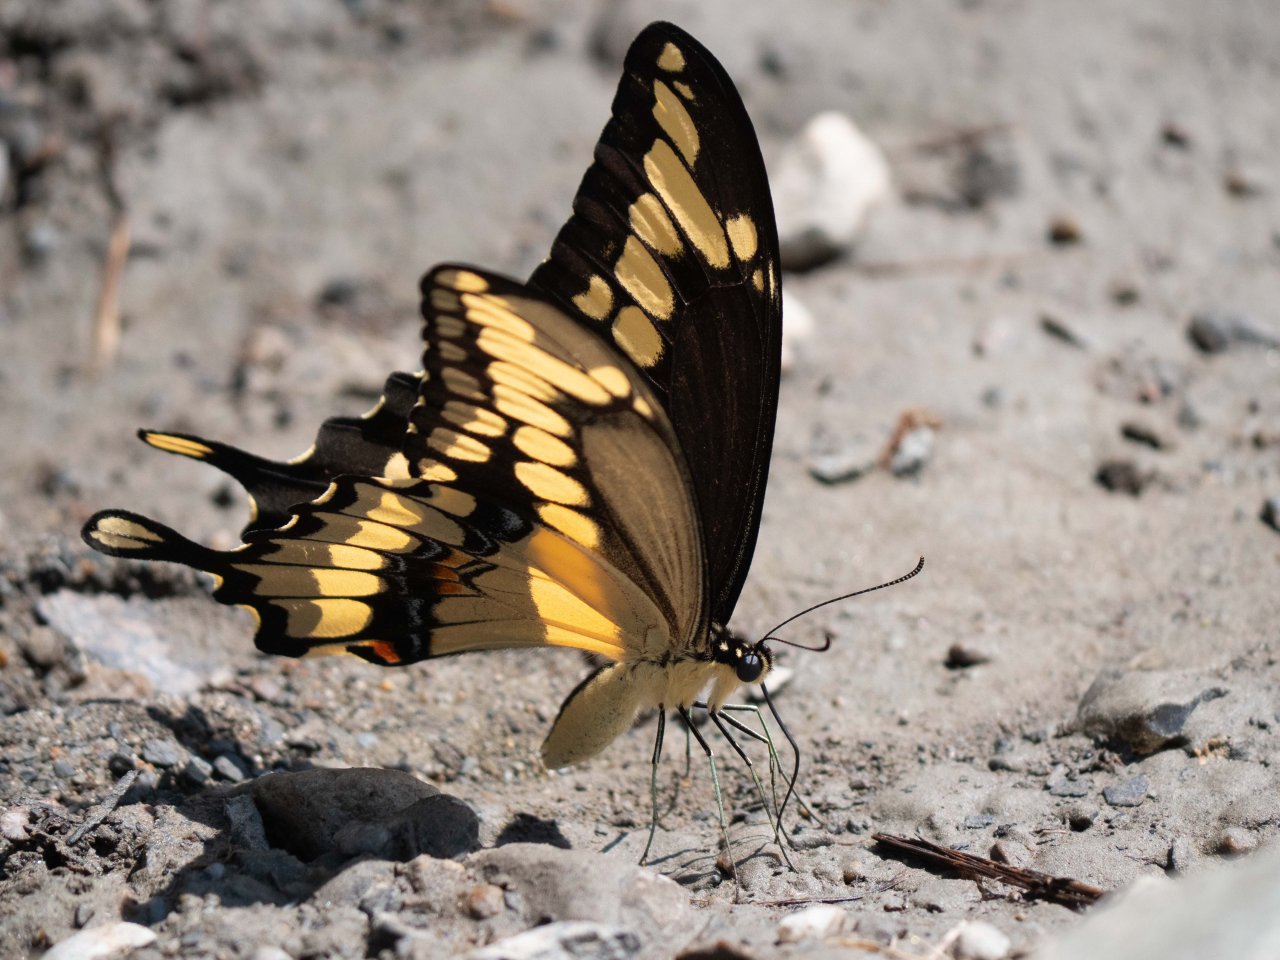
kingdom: Animalia
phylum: Arthropoda
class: Insecta
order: Lepidoptera
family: Papilionidae
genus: Papilio
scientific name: Papilio cresphontes
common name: Eastern Giant Swallowtail
